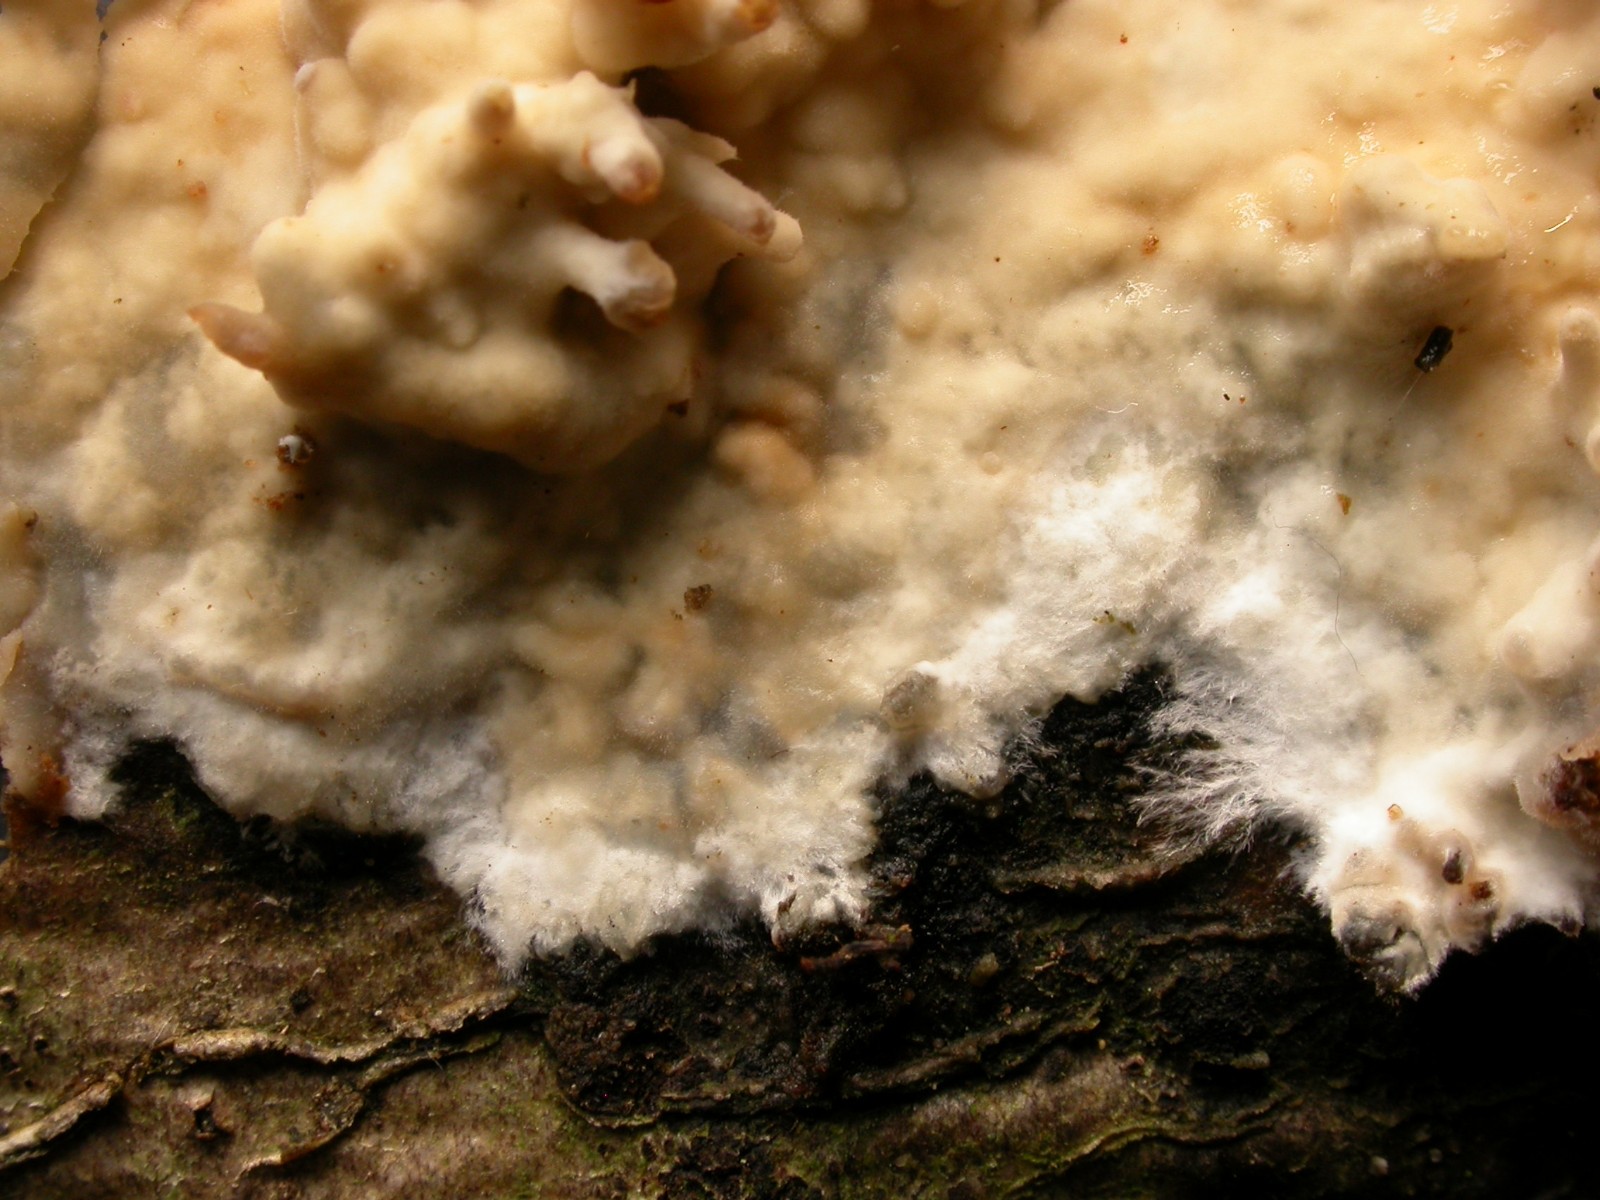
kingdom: Fungi
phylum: Basidiomycota
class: Agaricomycetes
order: Polyporales
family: Phanerochaetaceae
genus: Phanerochaete
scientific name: Phanerochaete velutina
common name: dunet randtråd
